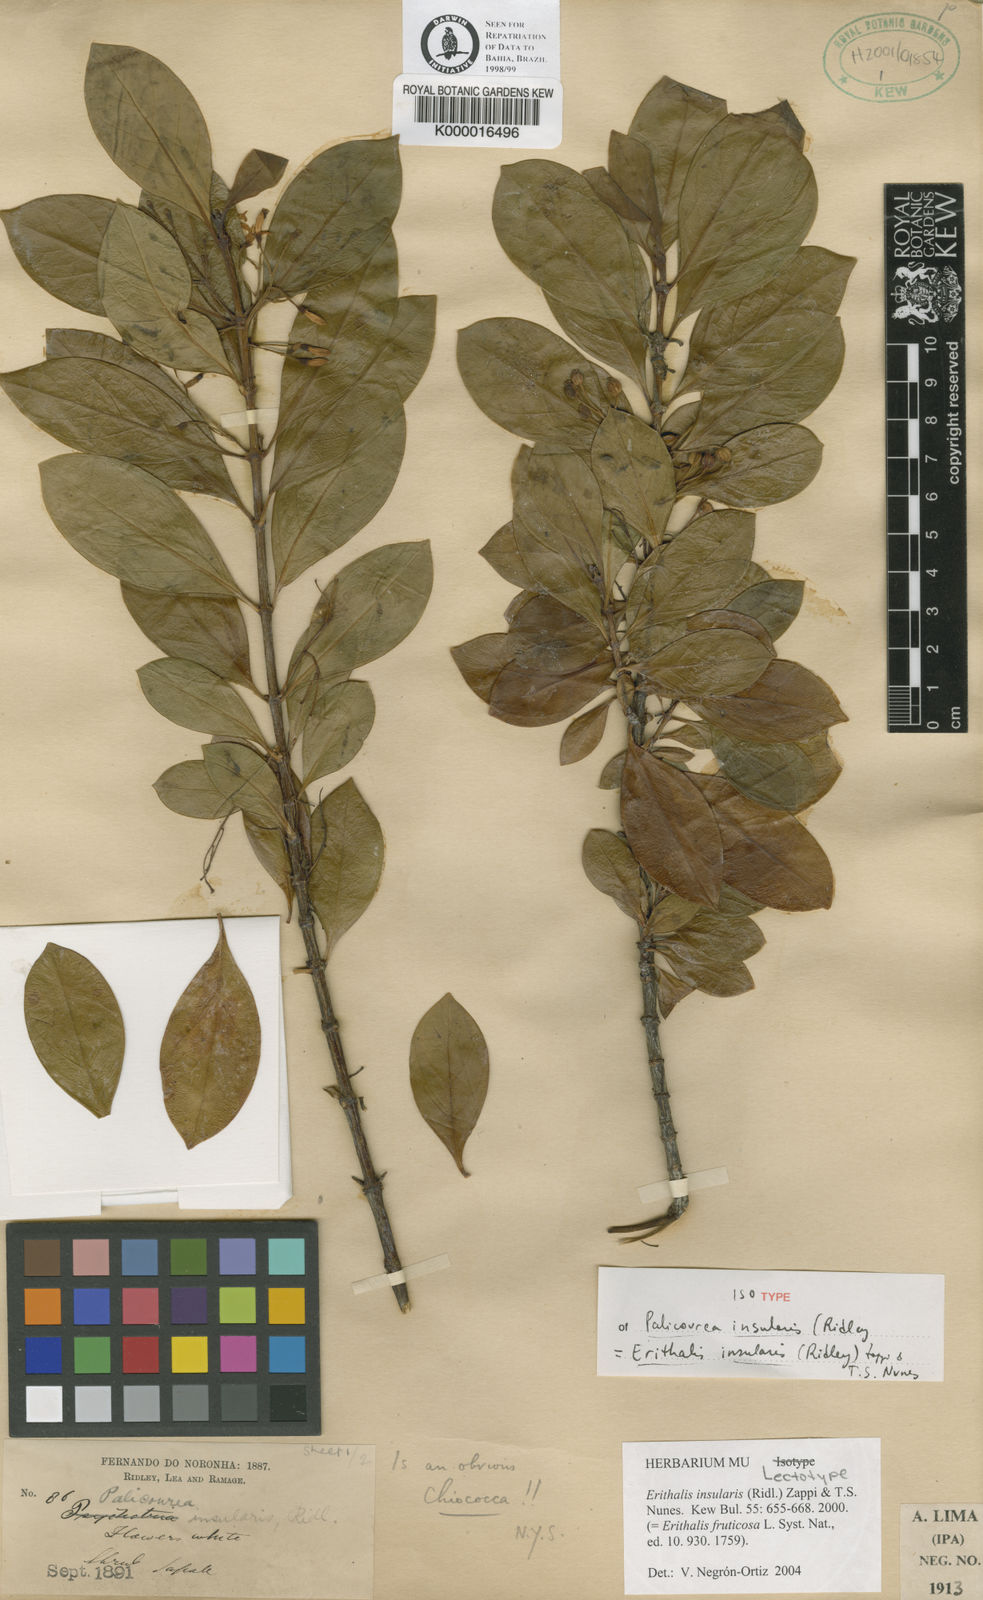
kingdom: Plantae
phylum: Tracheophyta
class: Magnoliopsida
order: Gentianales
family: Rubiaceae
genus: Chiococca
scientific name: Chiococca insularis
